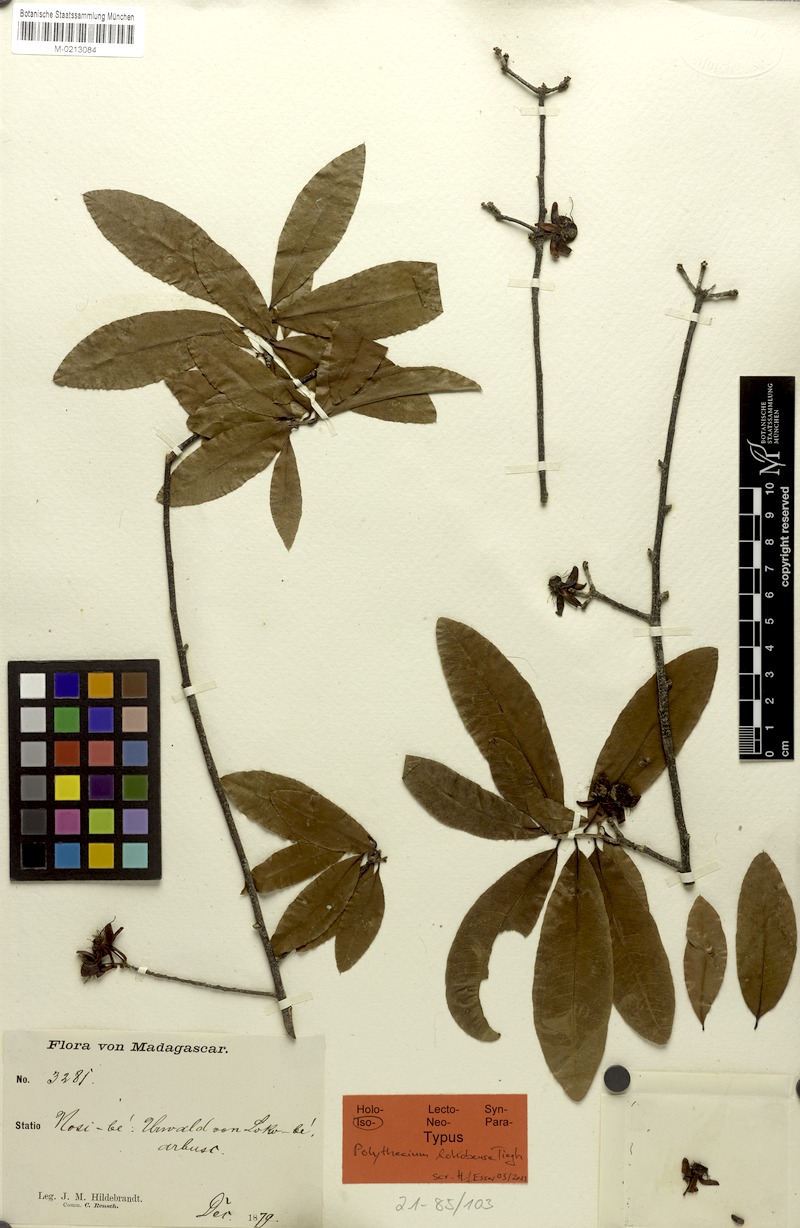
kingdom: Plantae
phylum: Tracheophyta
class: Magnoliopsida
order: Malpighiales
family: Ochnaceae
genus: Ochna
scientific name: Ochna ciliata
